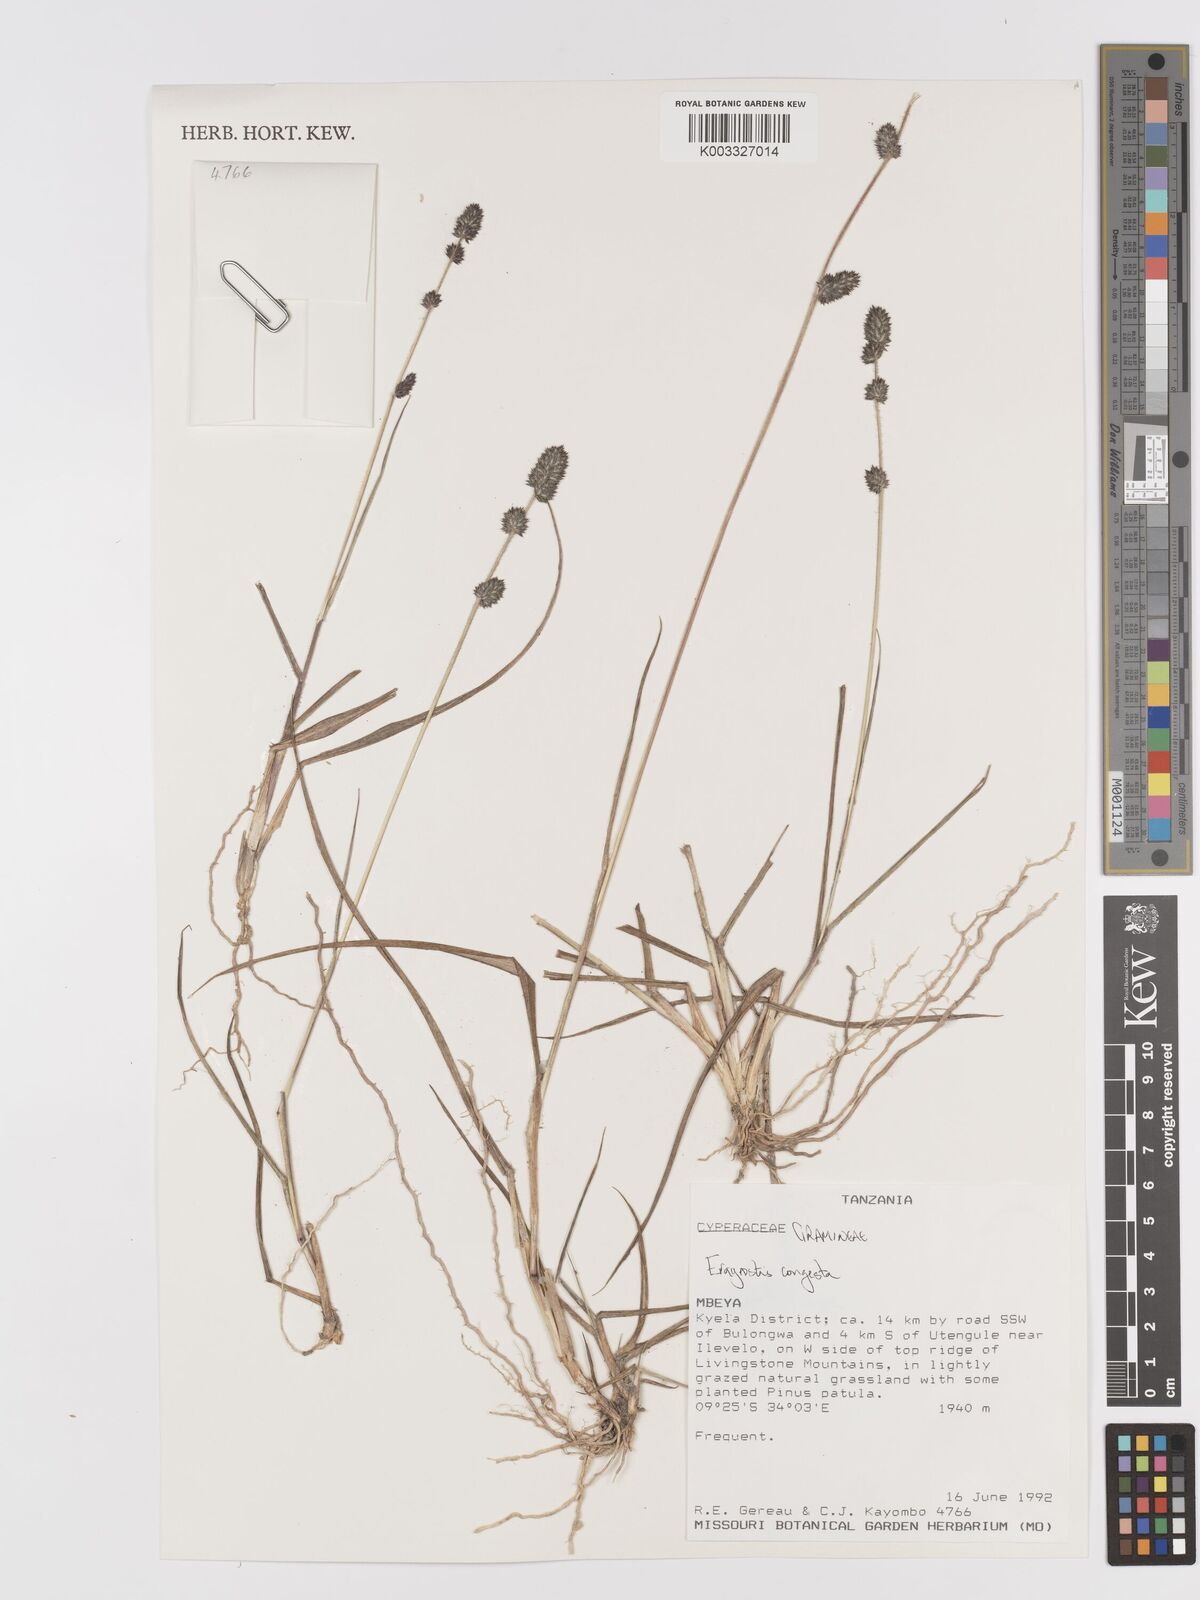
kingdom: Plantae
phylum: Tracheophyta
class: Liliopsida
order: Poales
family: Poaceae
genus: Eragrostis
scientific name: Eragrostis congesta
